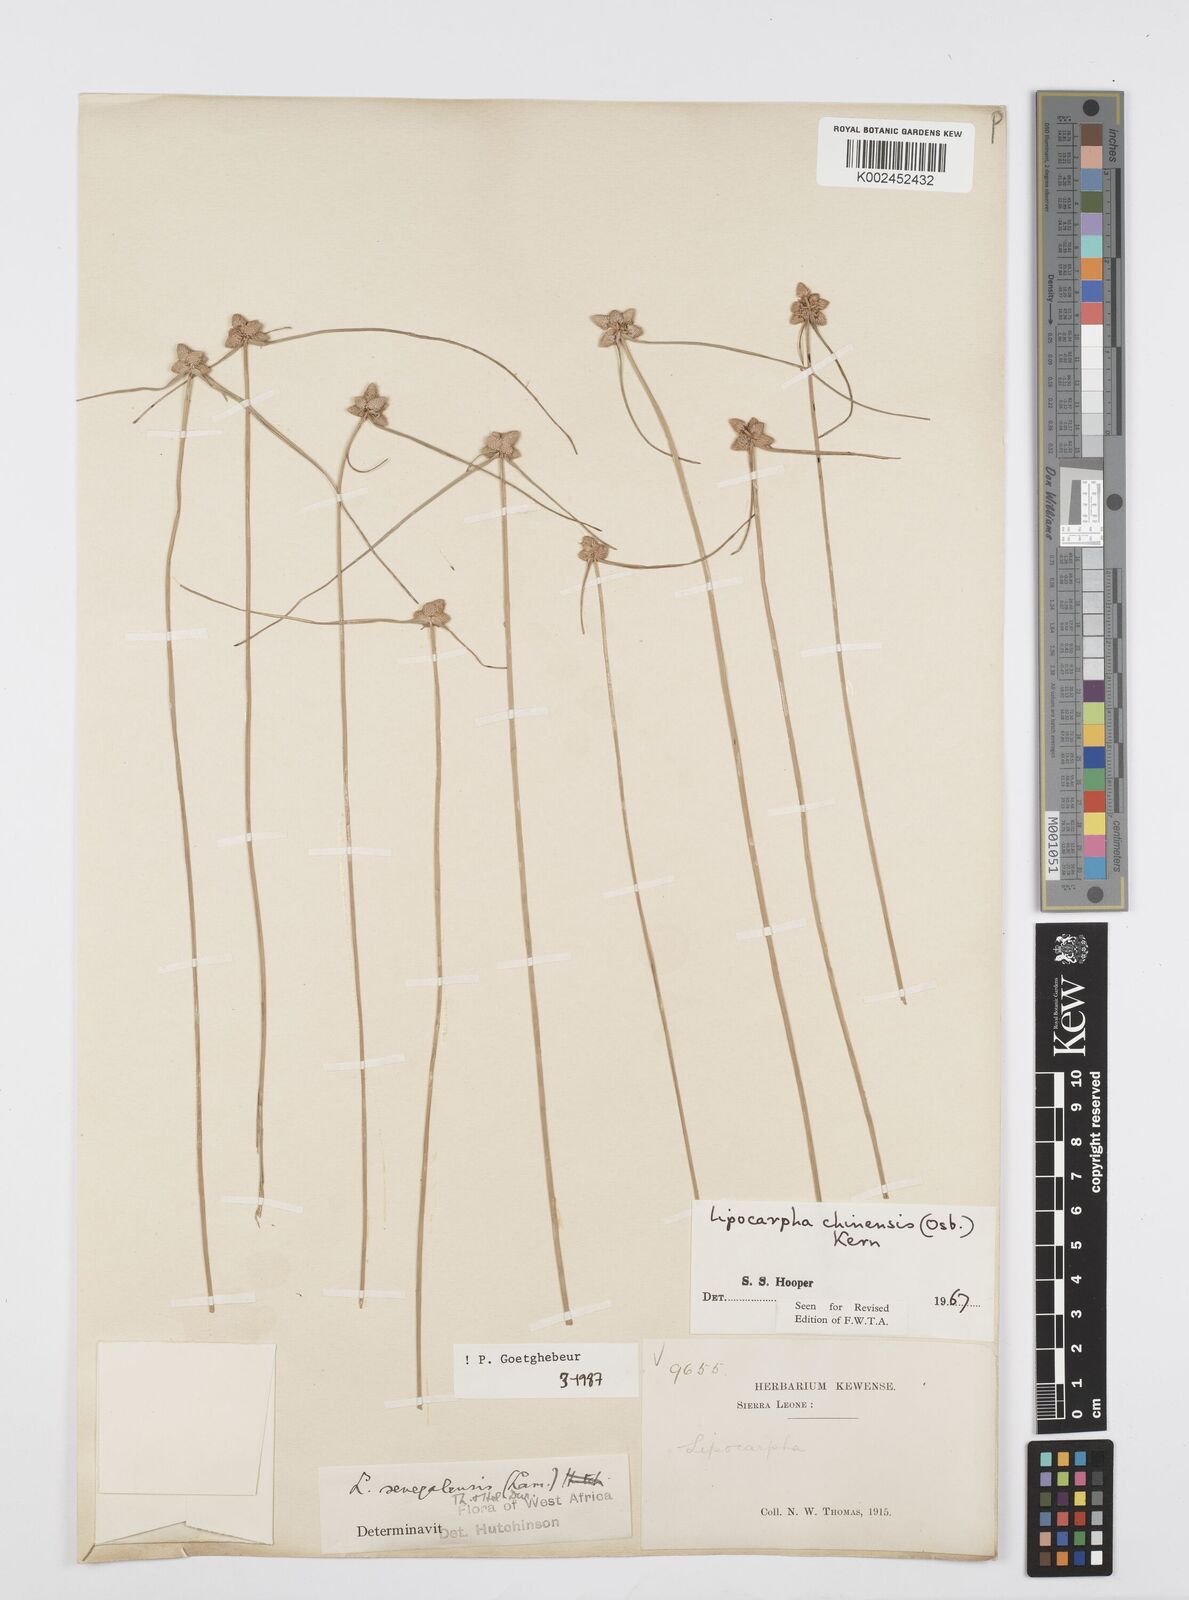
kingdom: Plantae
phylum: Tracheophyta
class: Liliopsida
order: Poales
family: Cyperaceae
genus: Cyperus
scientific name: Cyperus albescens
